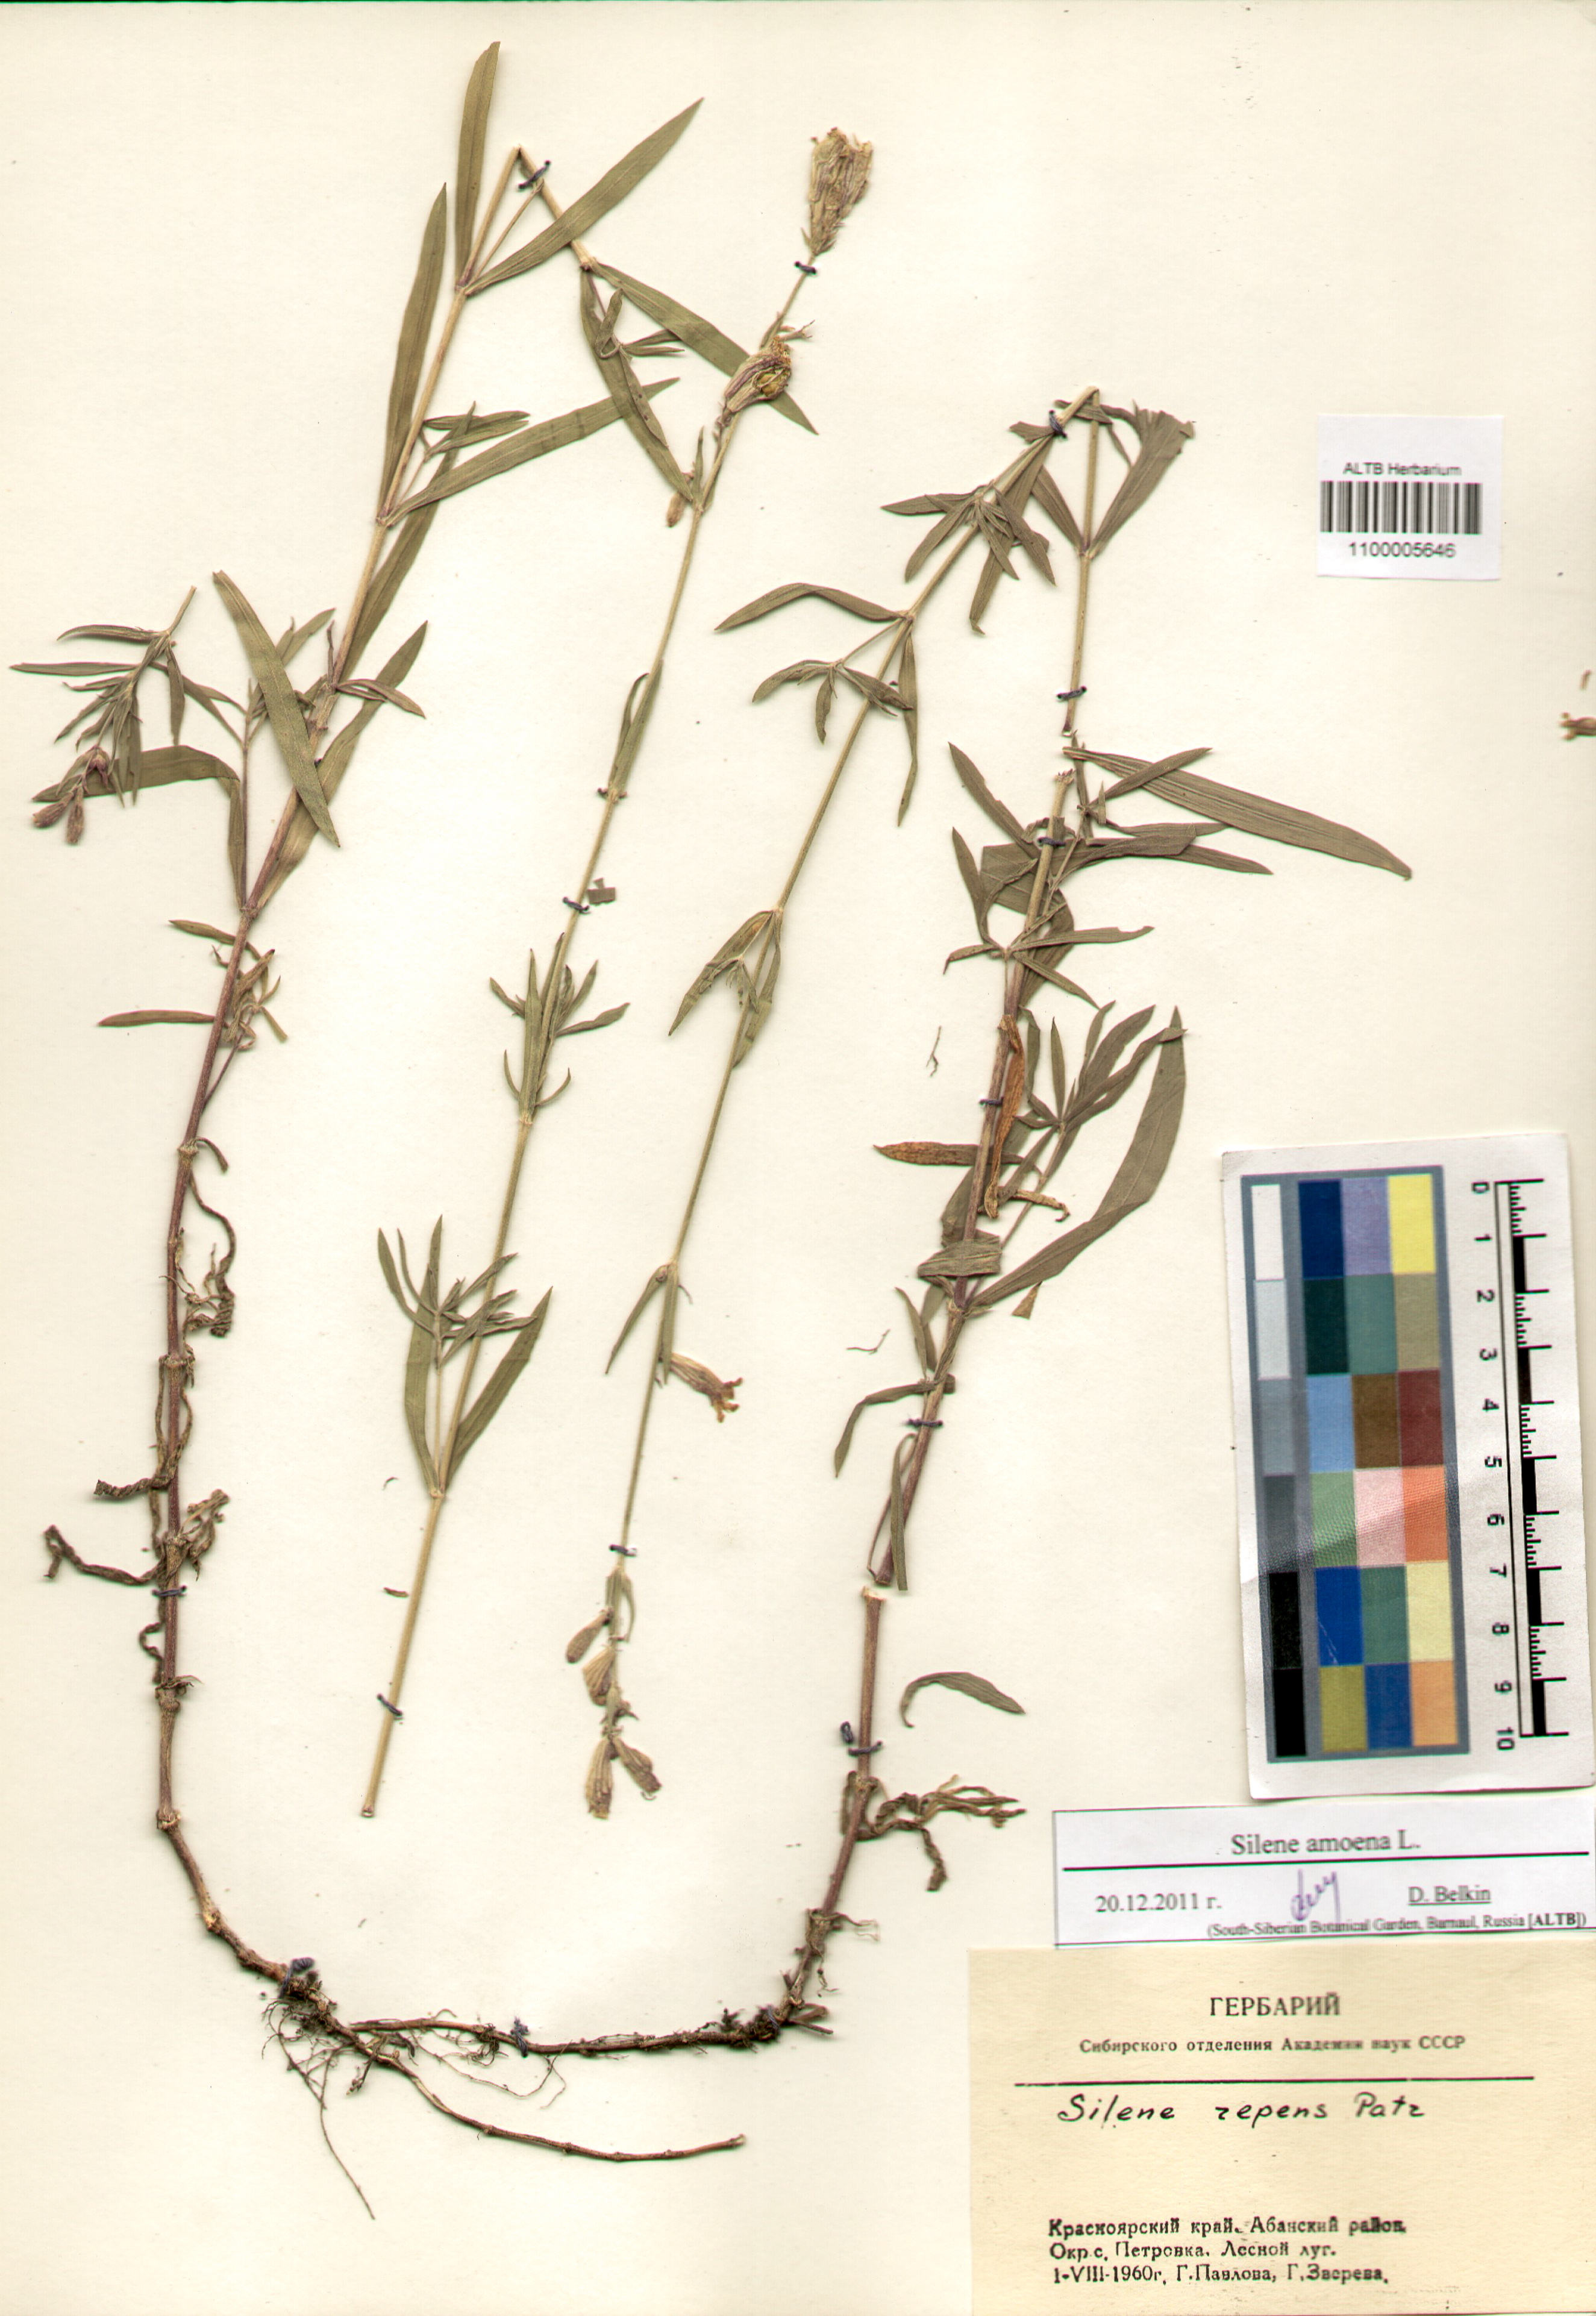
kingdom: Plantae
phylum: Tracheophyta
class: Magnoliopsida
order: Caryophyllales
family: Caryophyllaceae
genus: Silene
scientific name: Silene amoena
